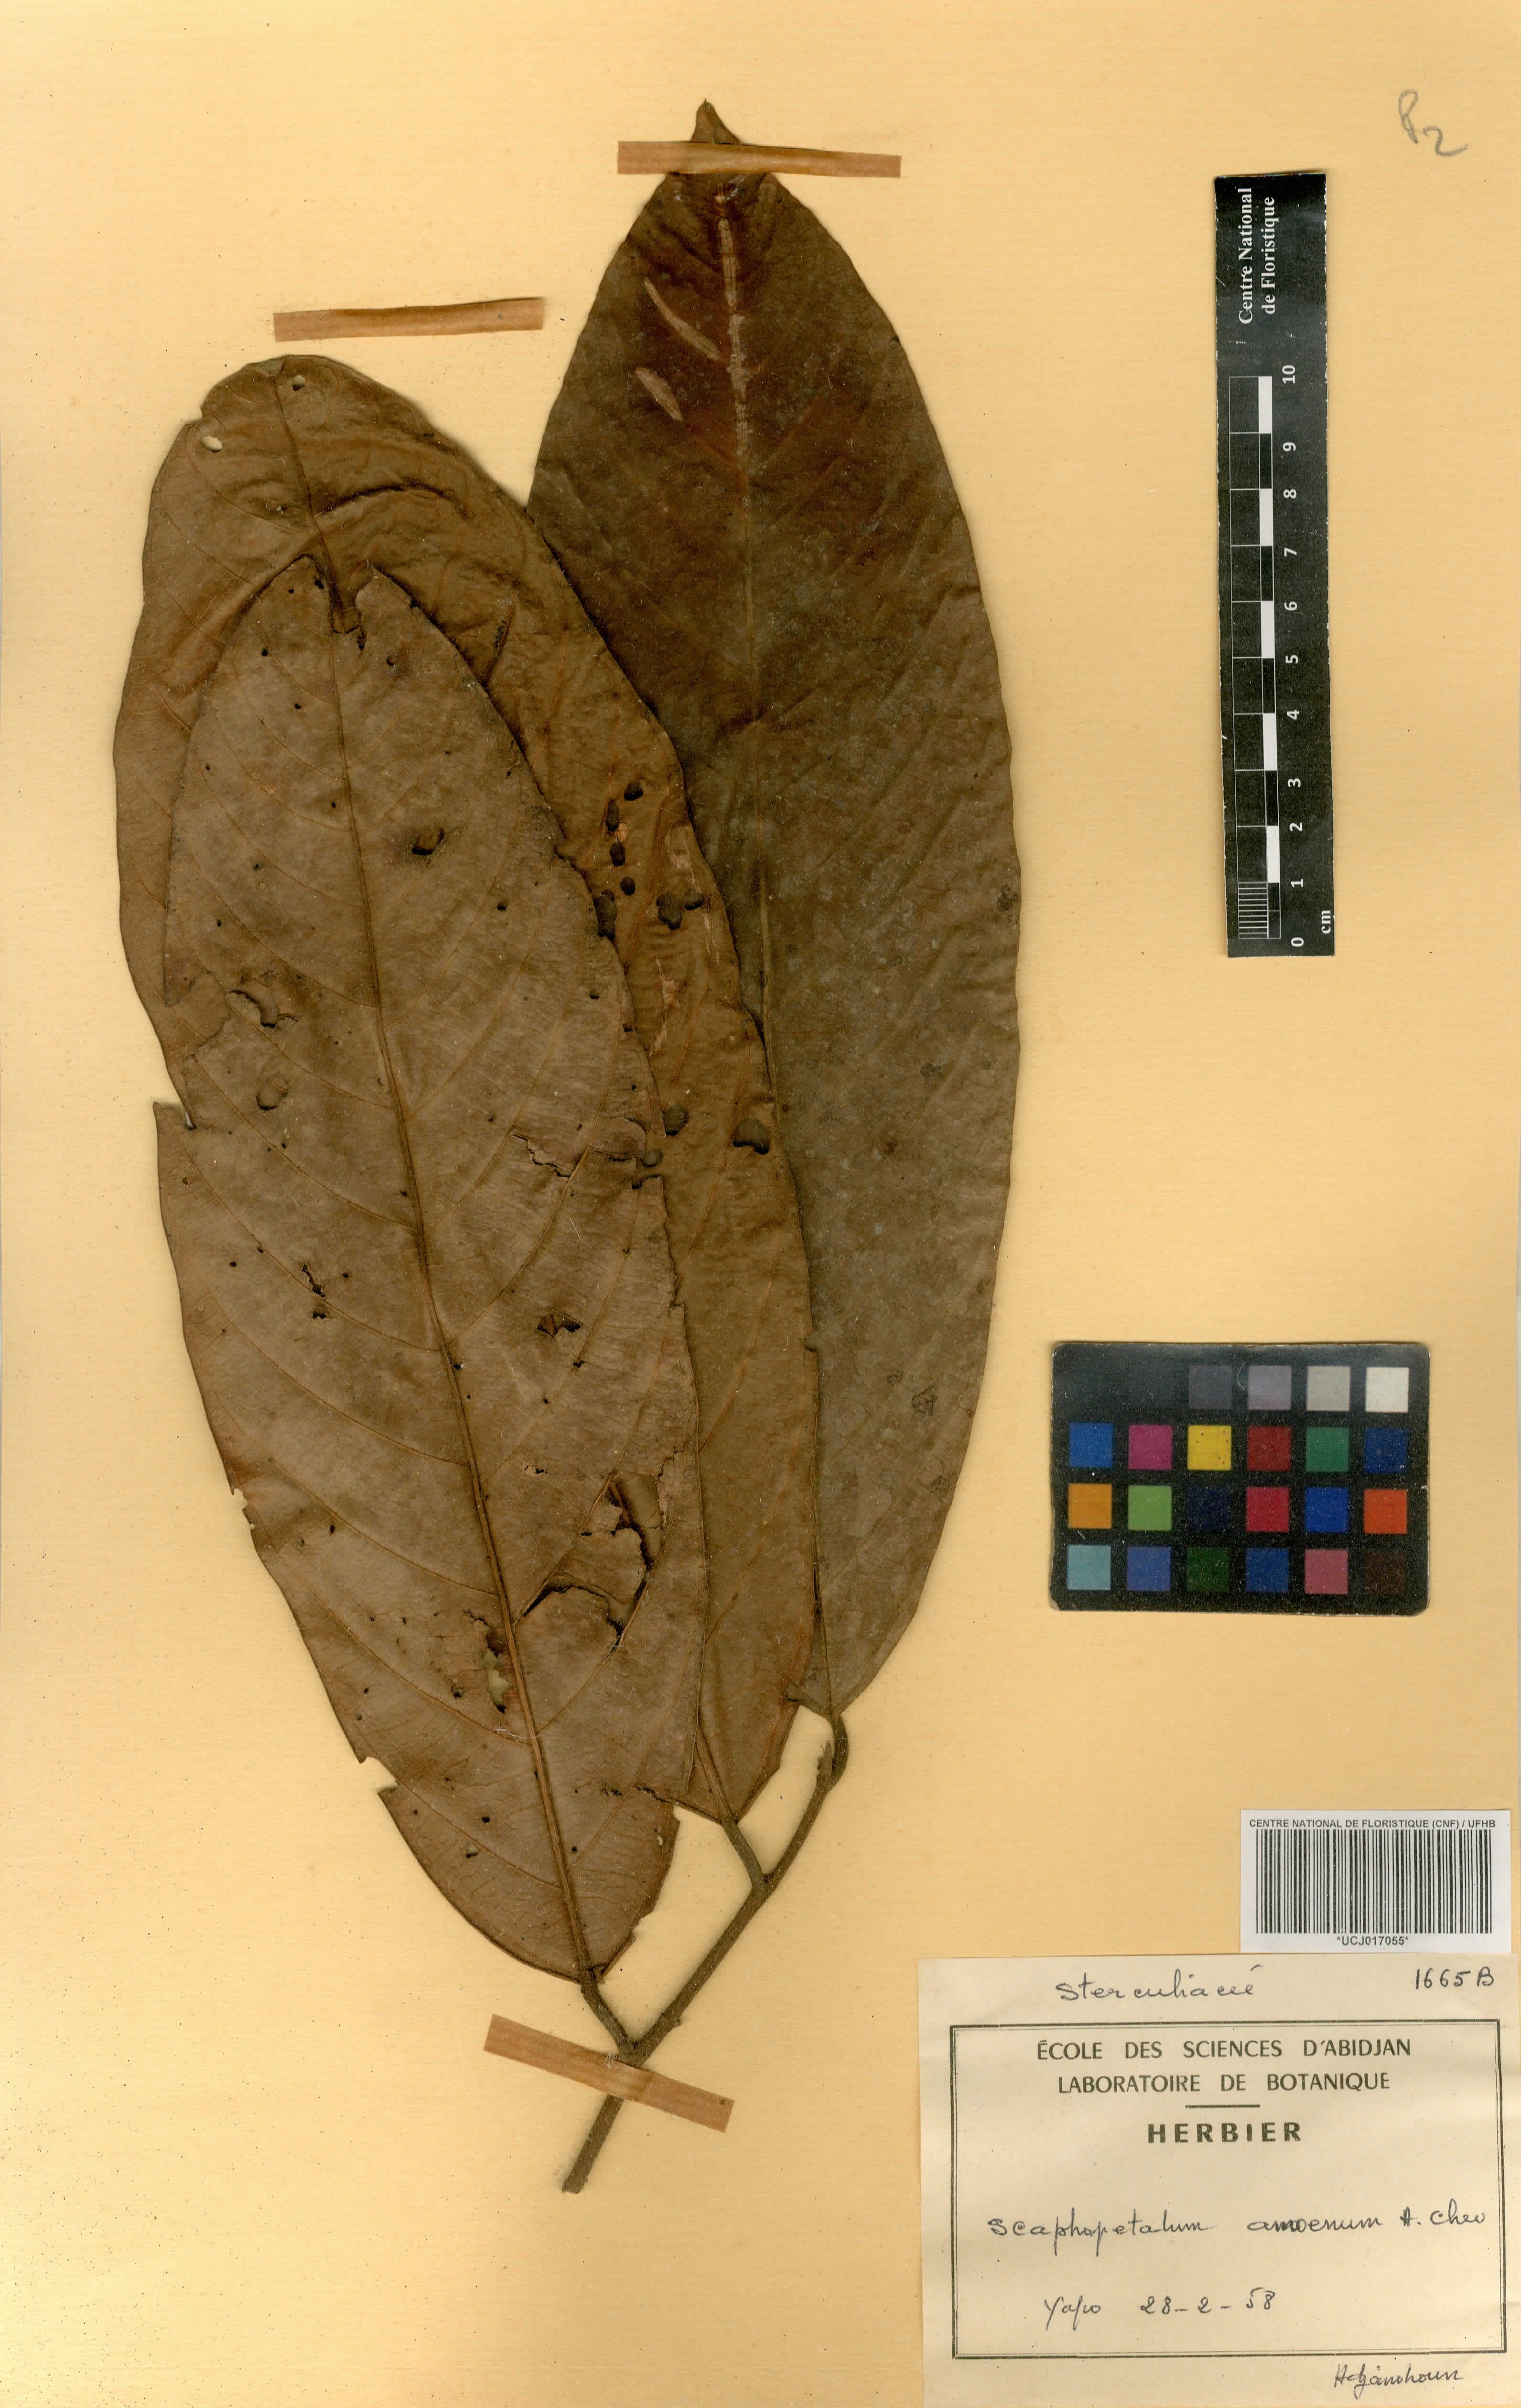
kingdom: Plantae
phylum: Tracheophyta
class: Magnoliopsida
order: Malvales
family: Malvaceae
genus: Scaphopetalum
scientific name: Scaphopetalum amoenum
